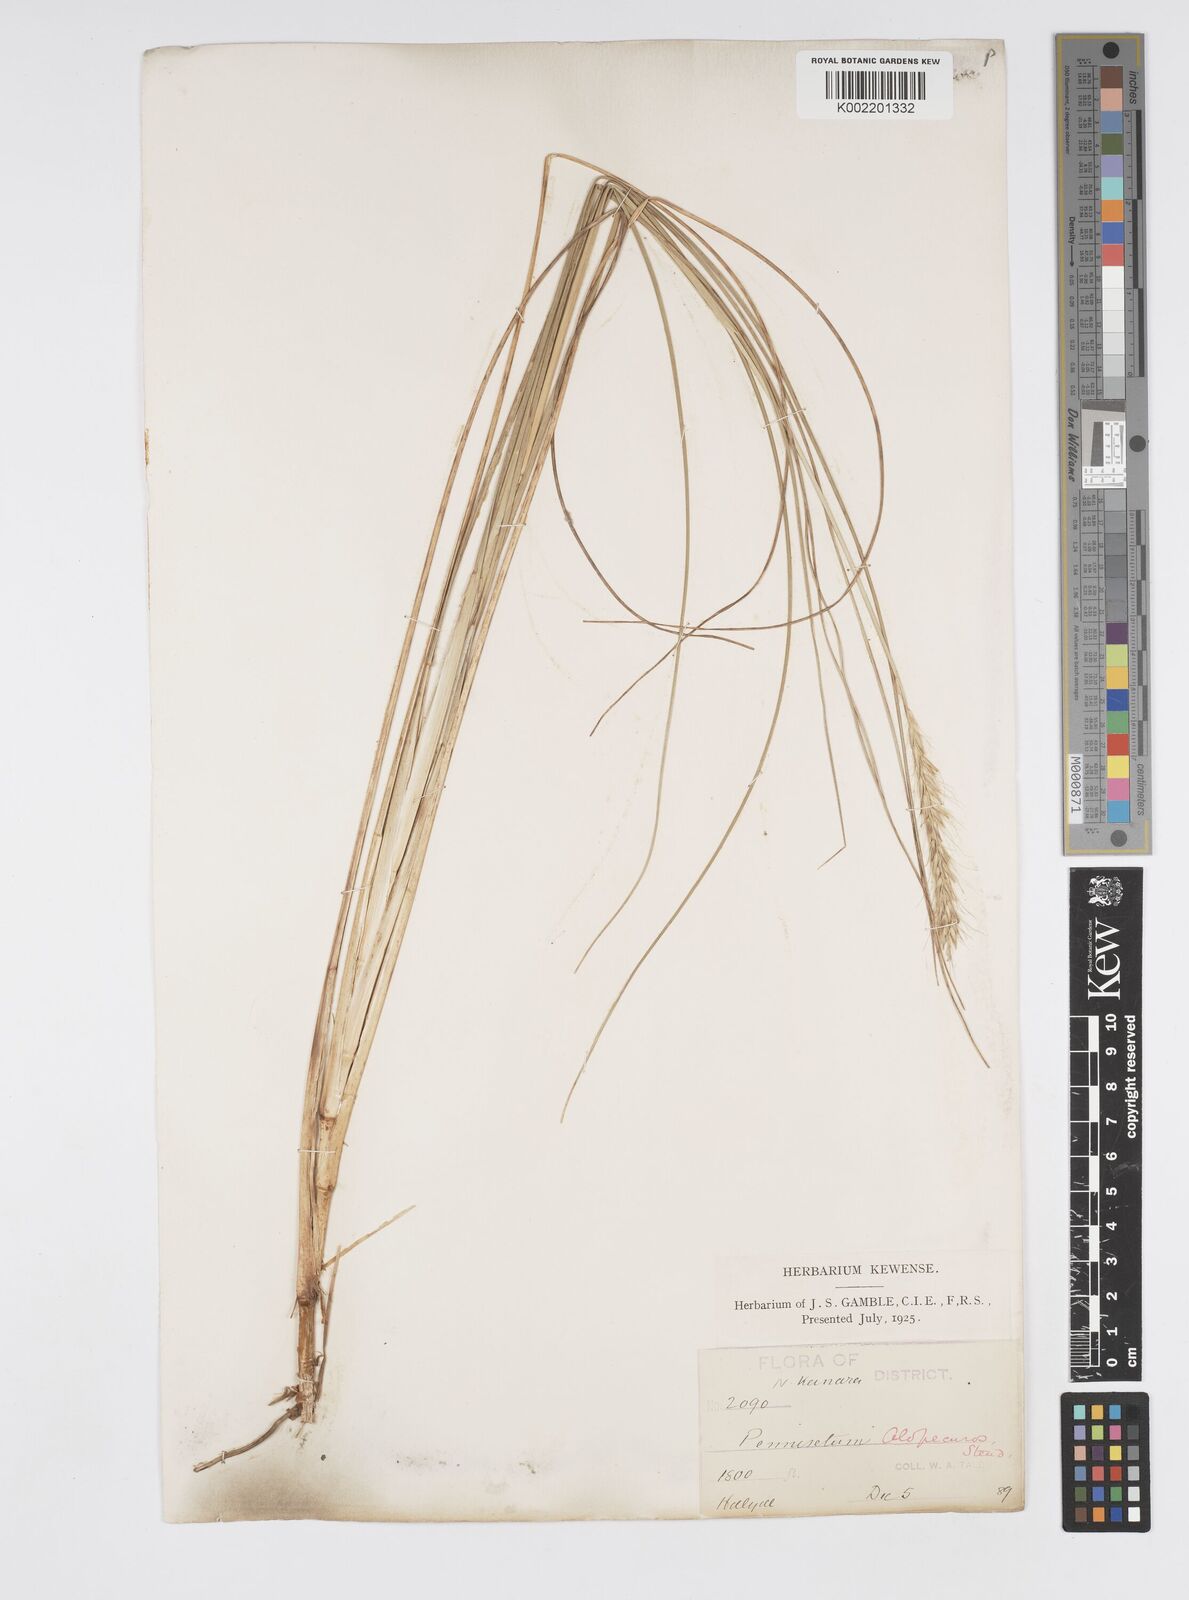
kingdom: Plantae
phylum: Tracheophyta
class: Liliopsida
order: Poales
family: Poaceae
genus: Cenchrus
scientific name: Cenchrus hohenackeri
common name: Moya grass
